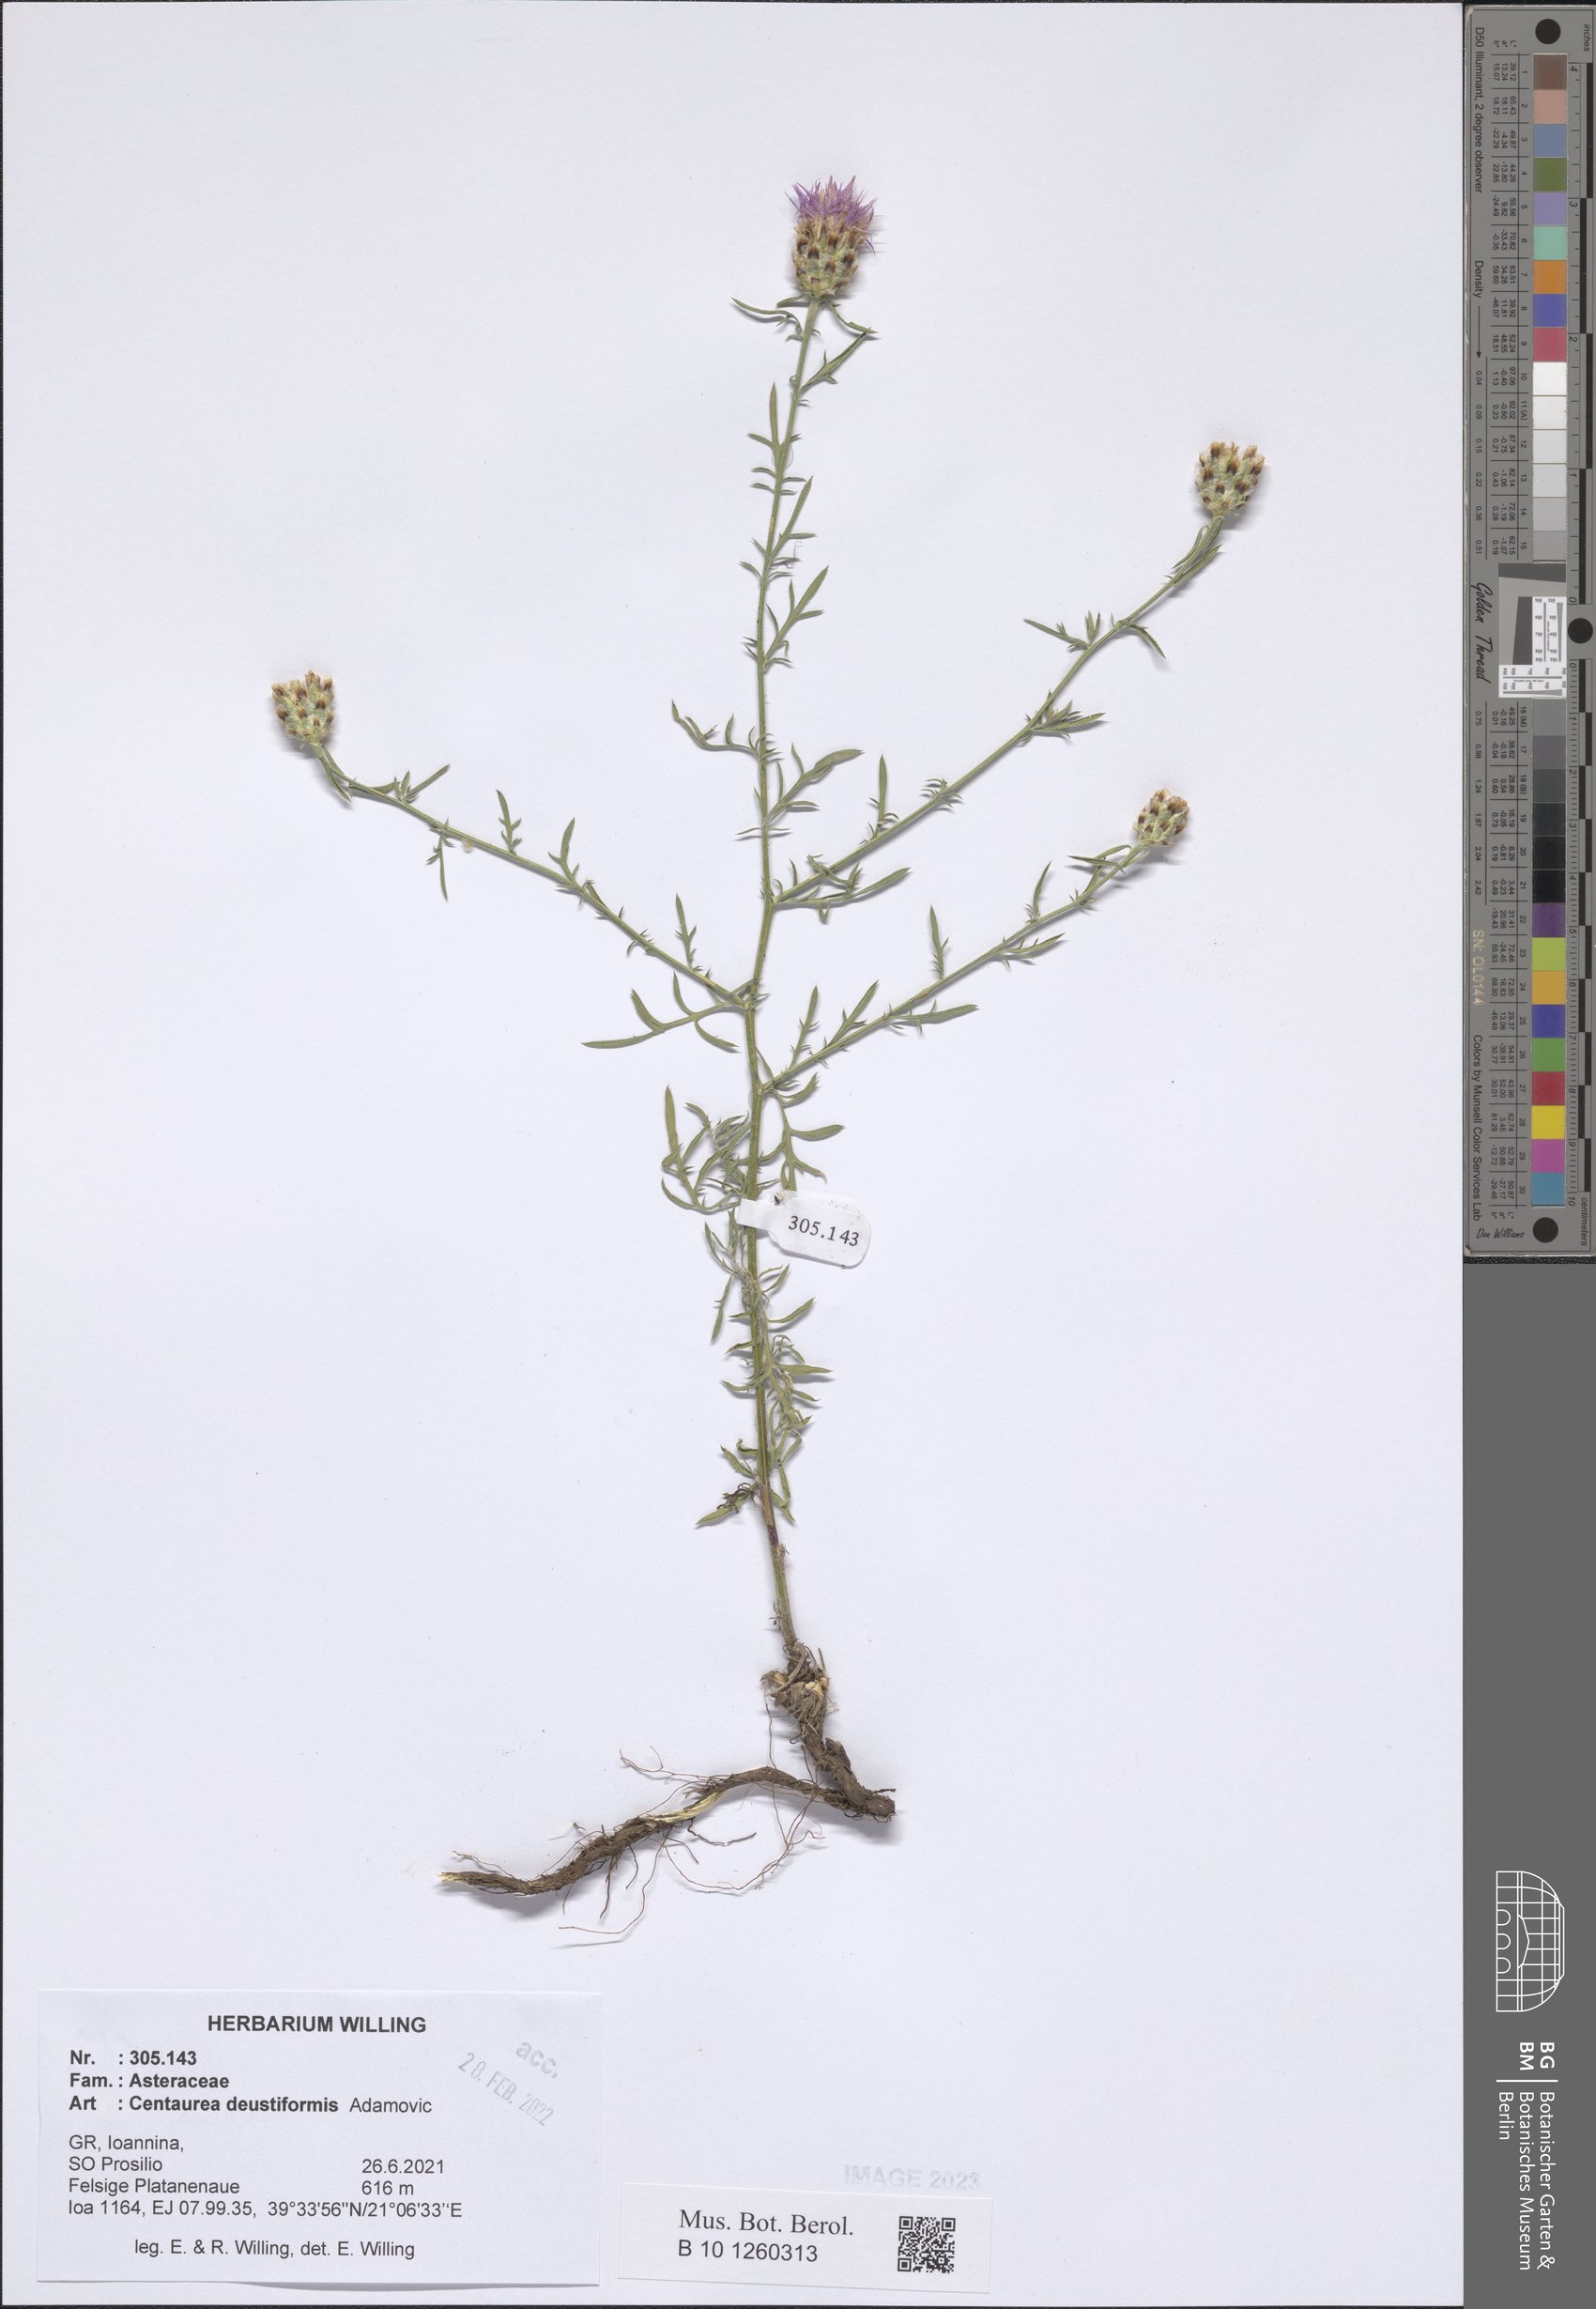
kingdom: Plantae
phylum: Tracheophyta
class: Magnoliopsida
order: Asterales
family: Asteraceae
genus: Centaurea
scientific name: Centaurea deustiformis
